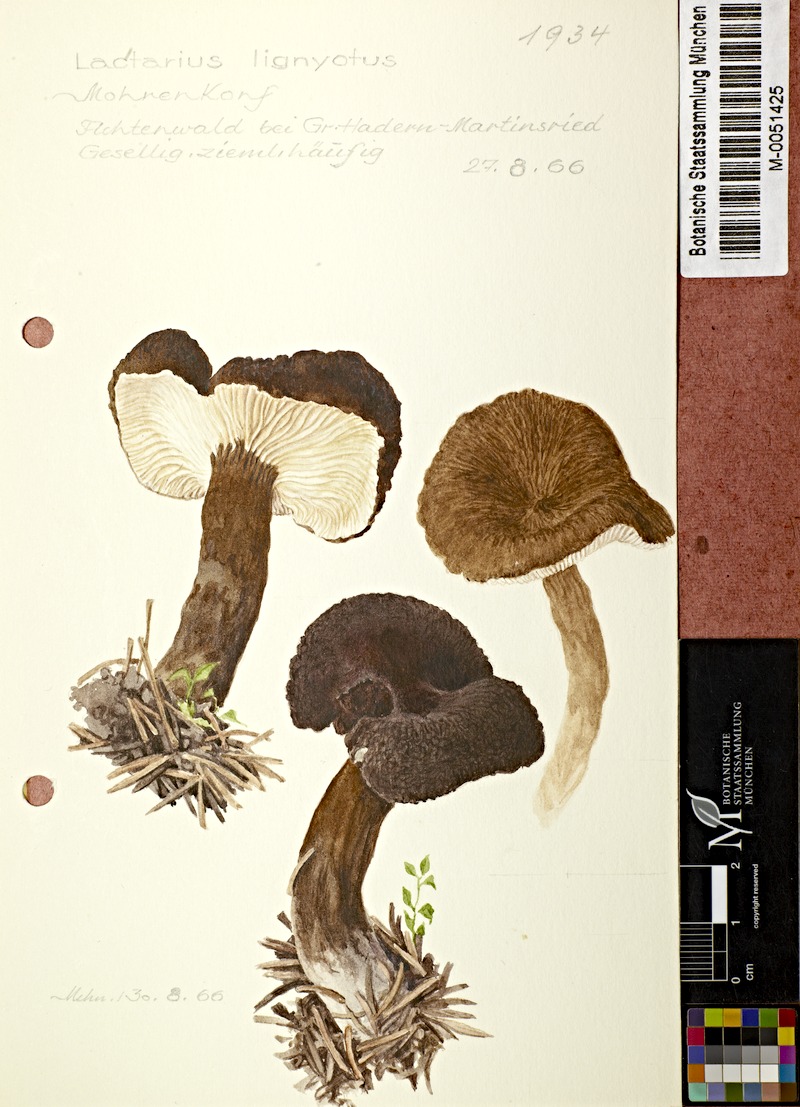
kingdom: Fungi
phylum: Basidiomycota
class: Agaricomycetes
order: Russulales
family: Russulaceae
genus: Lactarius
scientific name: Lactarius lignyotus
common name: Velvet milkcap
